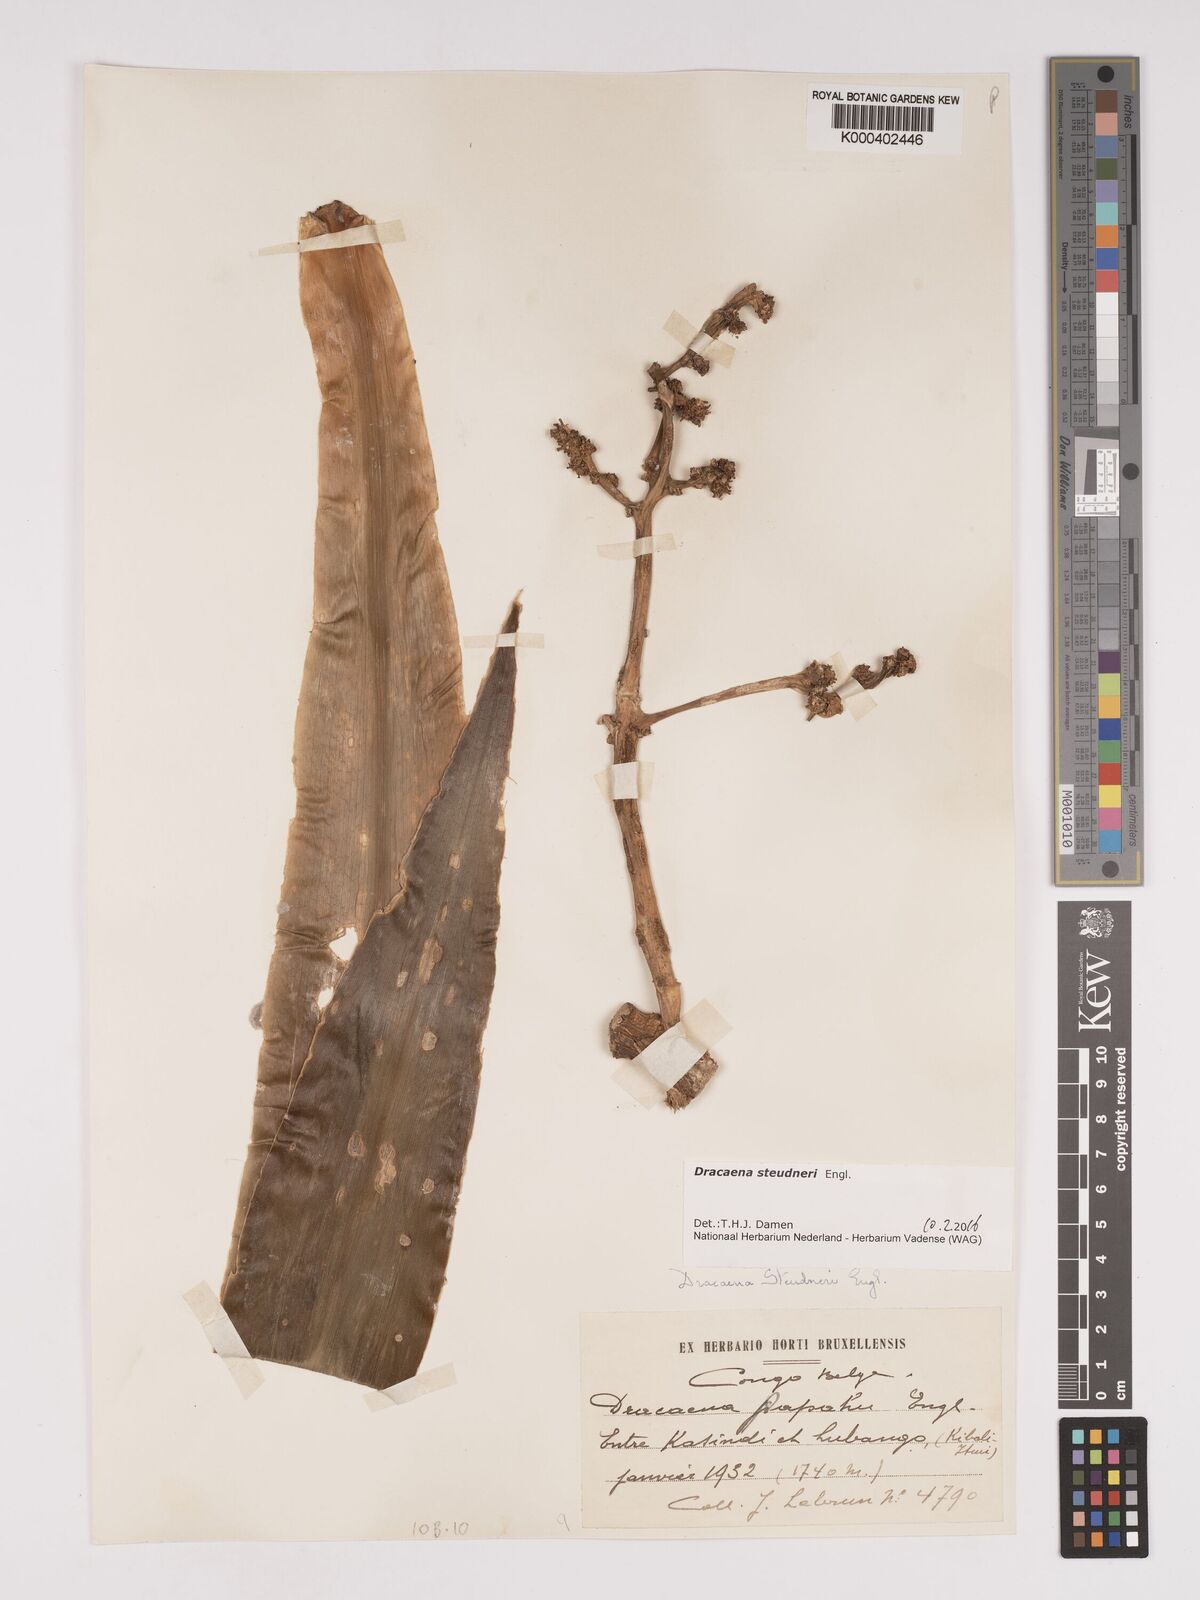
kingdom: Plantae
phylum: Tracheophyta
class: Liliopsida
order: Asparagales
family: Asparagaceae
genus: Dracaena
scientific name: Dracaena steudneri
